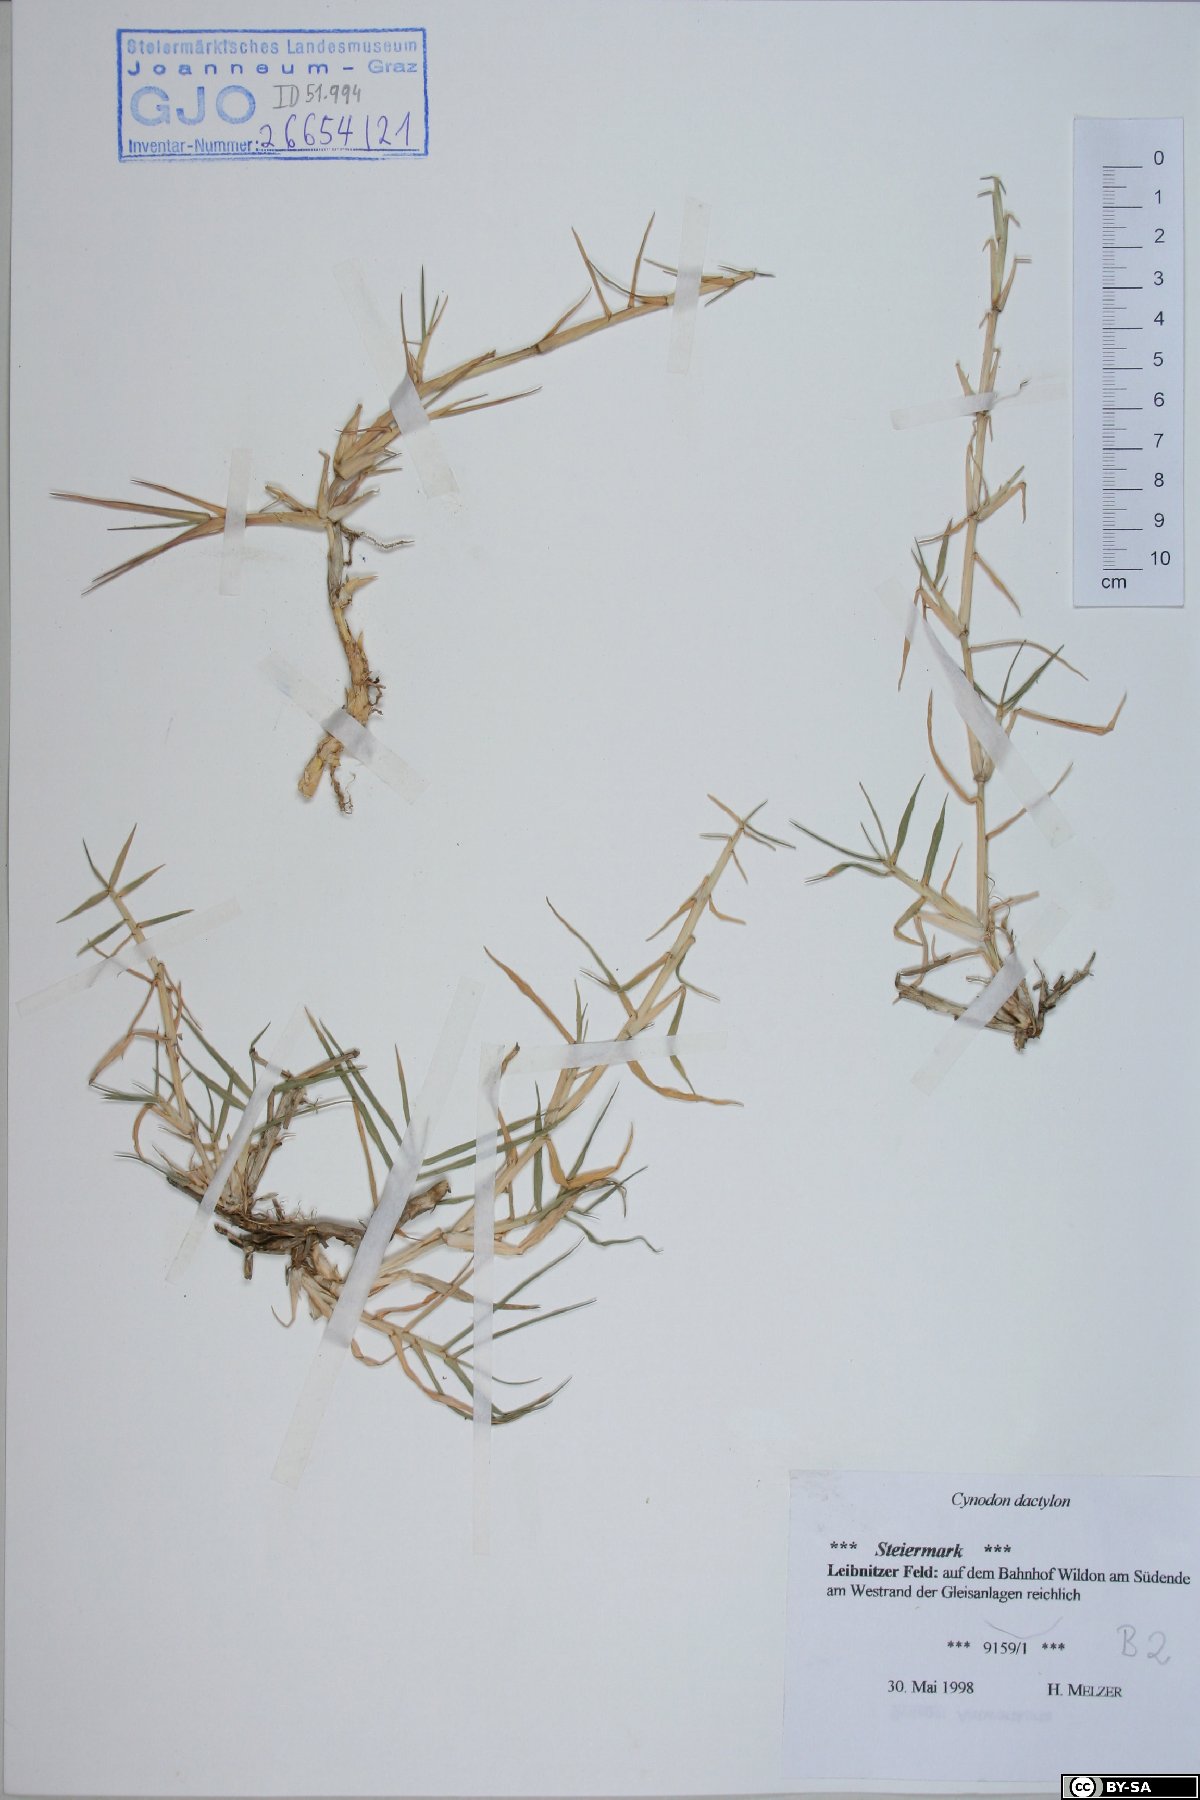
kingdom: Plantae
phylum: Tracheophyta
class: Liliopsida
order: Poales
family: Poaceae
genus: Cynodon
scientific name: Cynodon dactylon
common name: Bermuda grass
